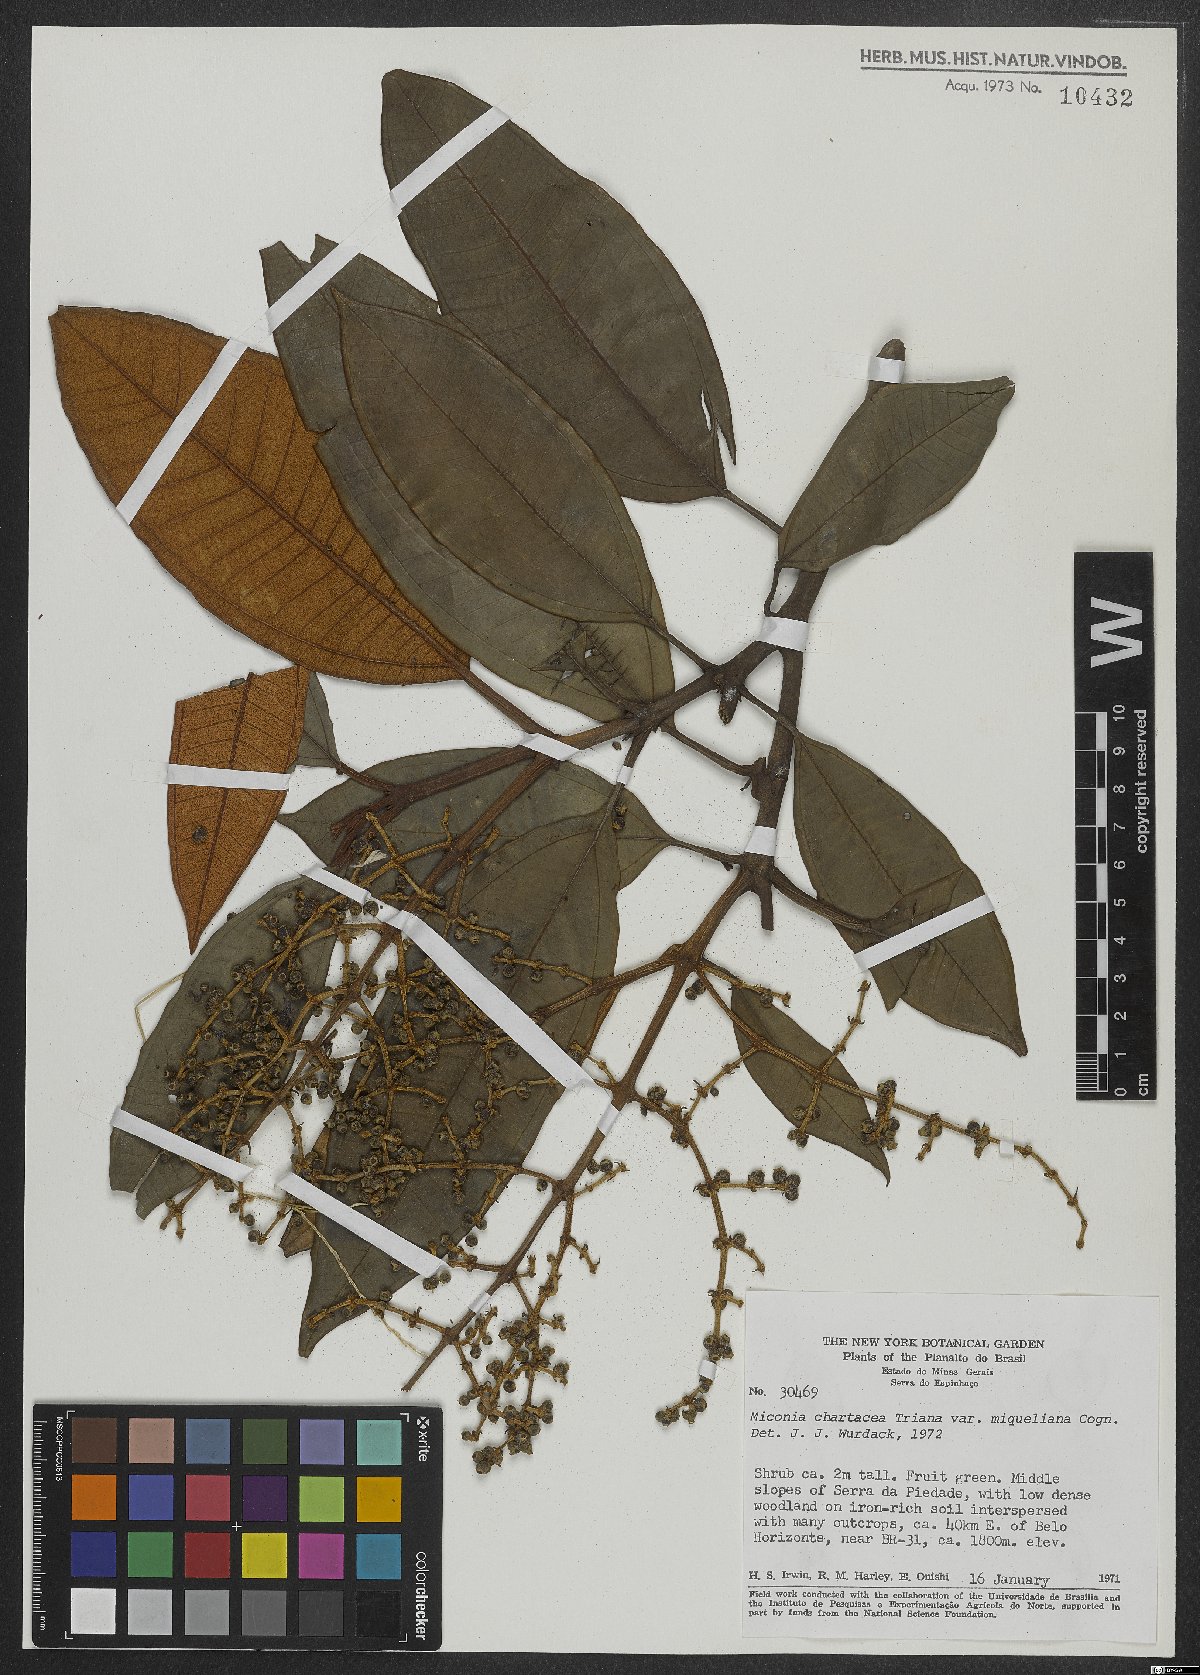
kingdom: Plantae
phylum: Tracheophyta
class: Magnoliopsida
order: Myrtales
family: Melastomataceae
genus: Miconia
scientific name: Miconia chartacea
